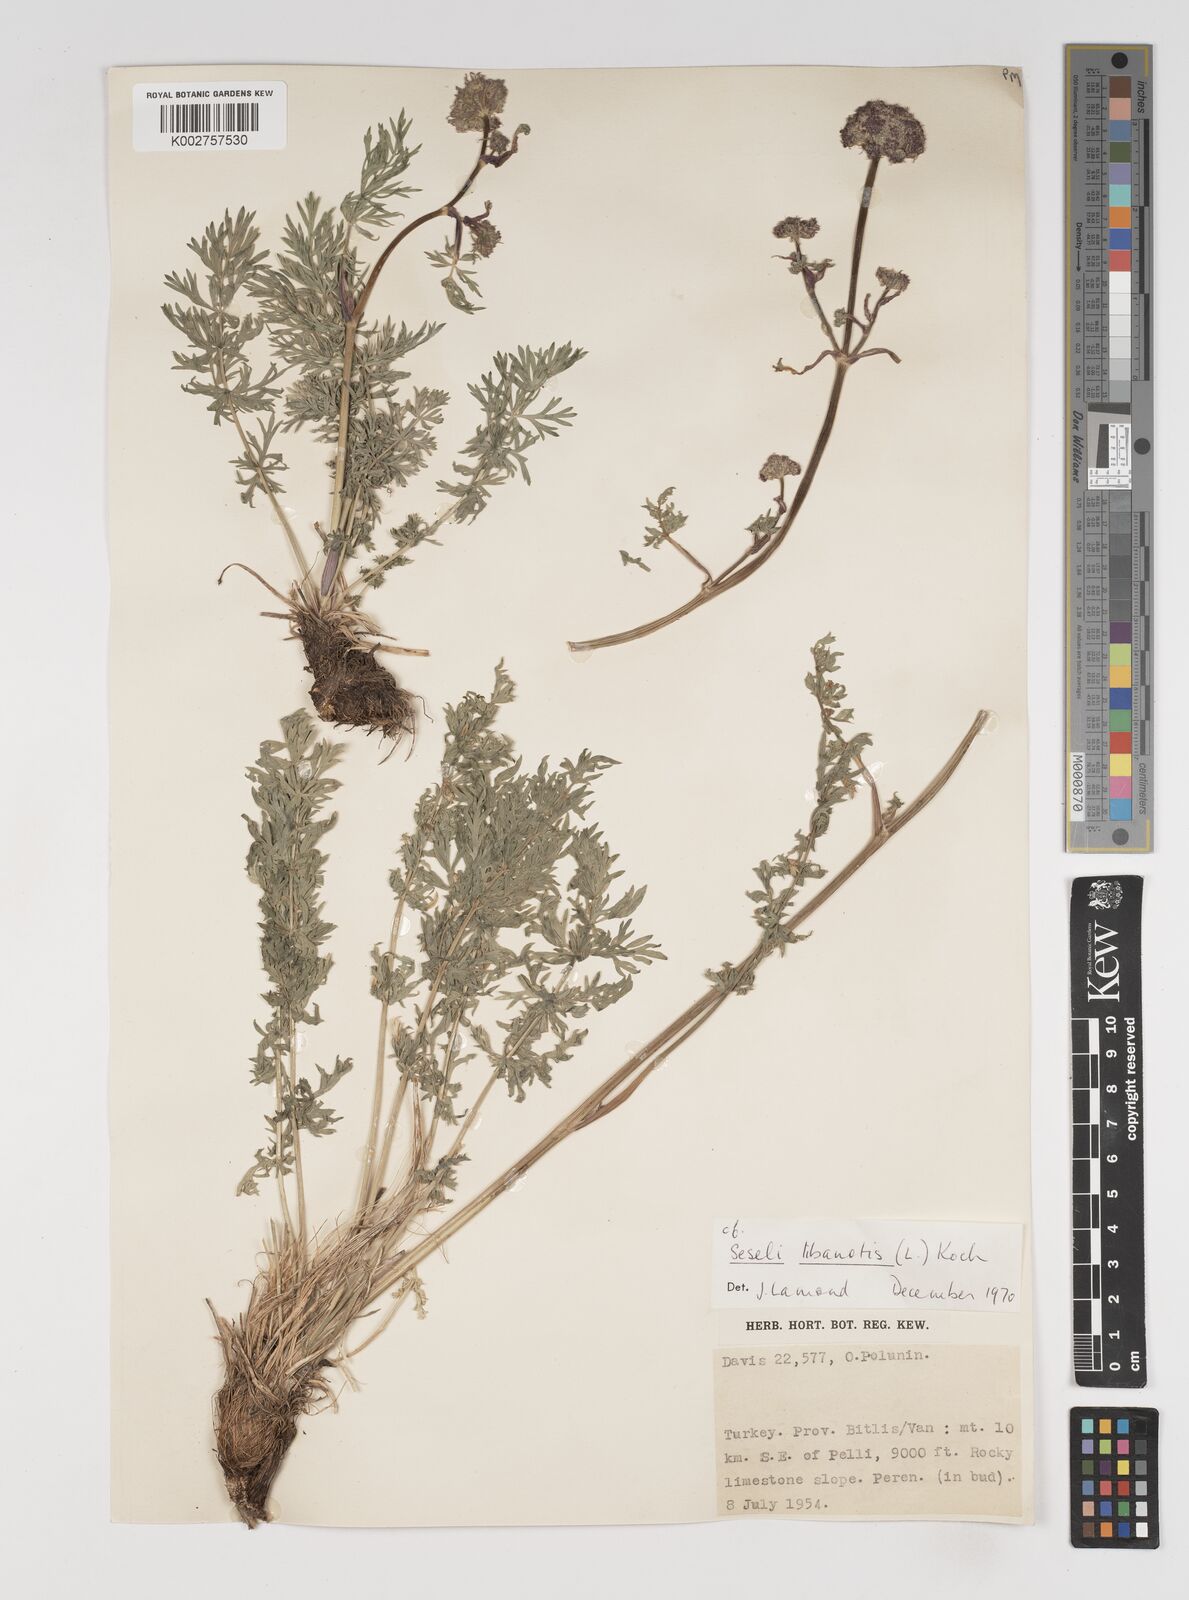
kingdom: Plantae
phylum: Tracheophyta
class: Magnoliopsida
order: Apiales
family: Apiaceae
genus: Seseli
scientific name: Seseli libanotis
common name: Mooncarrot
